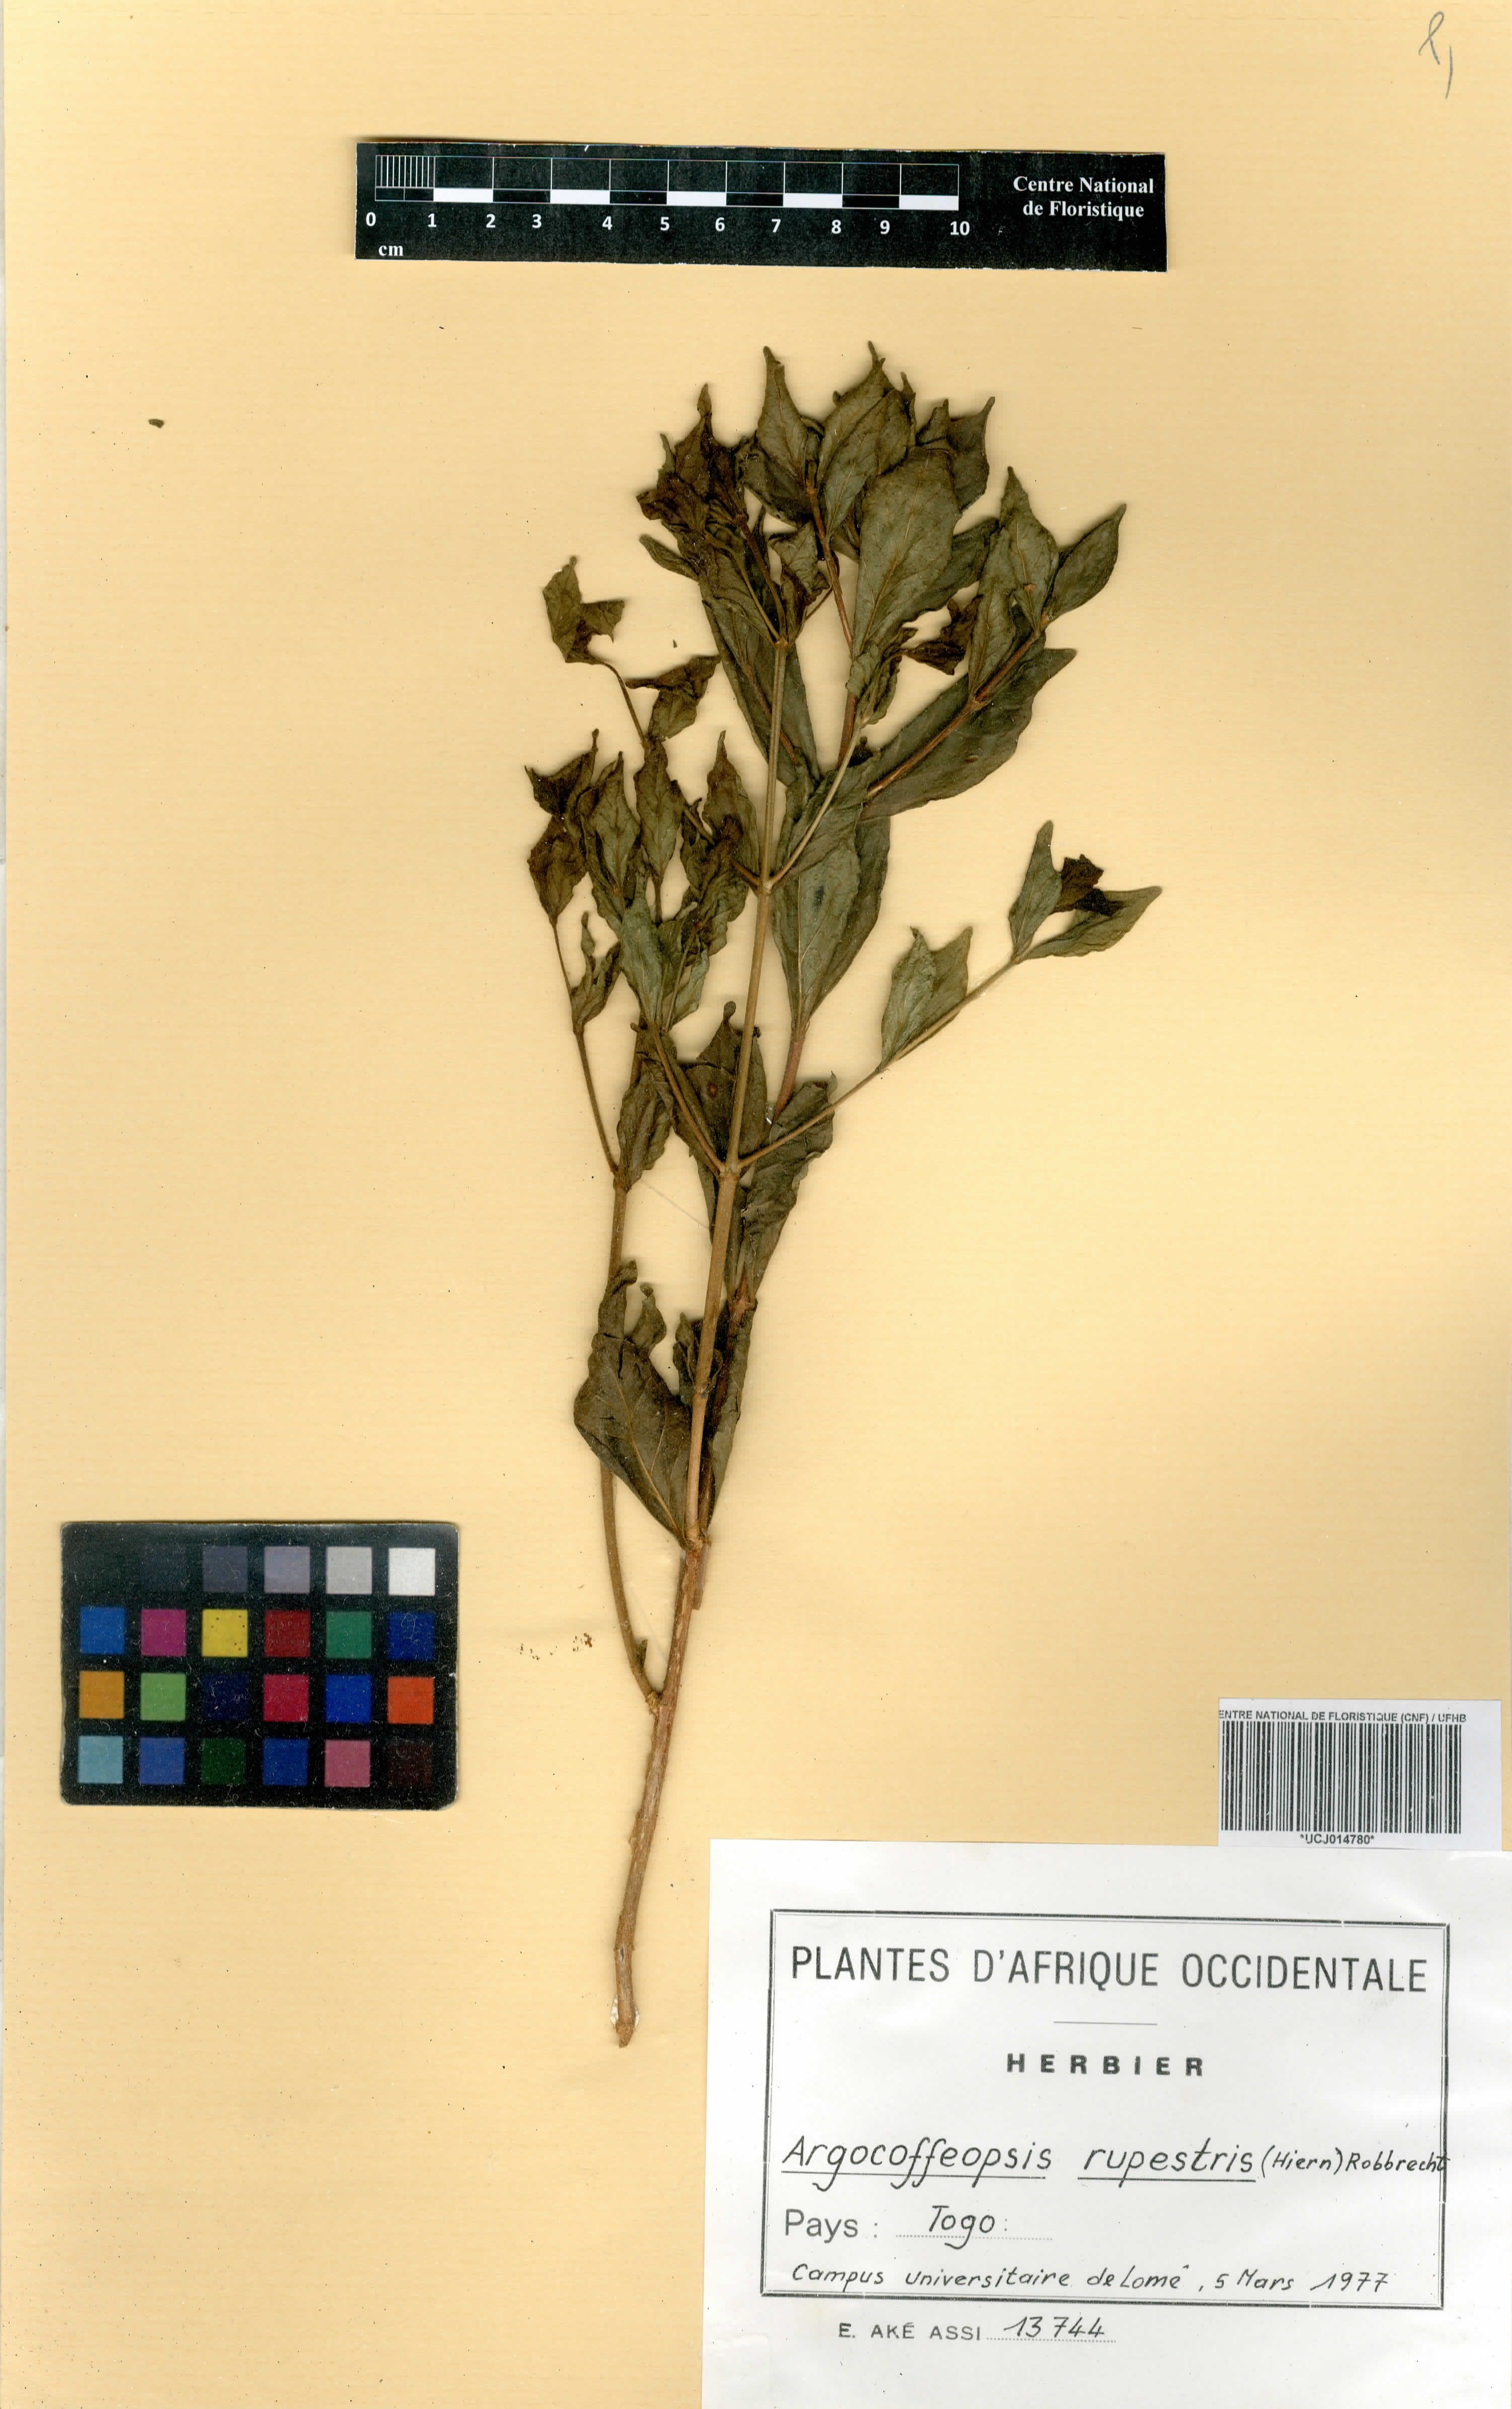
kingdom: Plantae
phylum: Tracheophyta
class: Magnoliopsida
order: Gentianales
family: Rubiaceae
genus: Argocoffeopsis
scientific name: Argocoffeopsis rupestris
